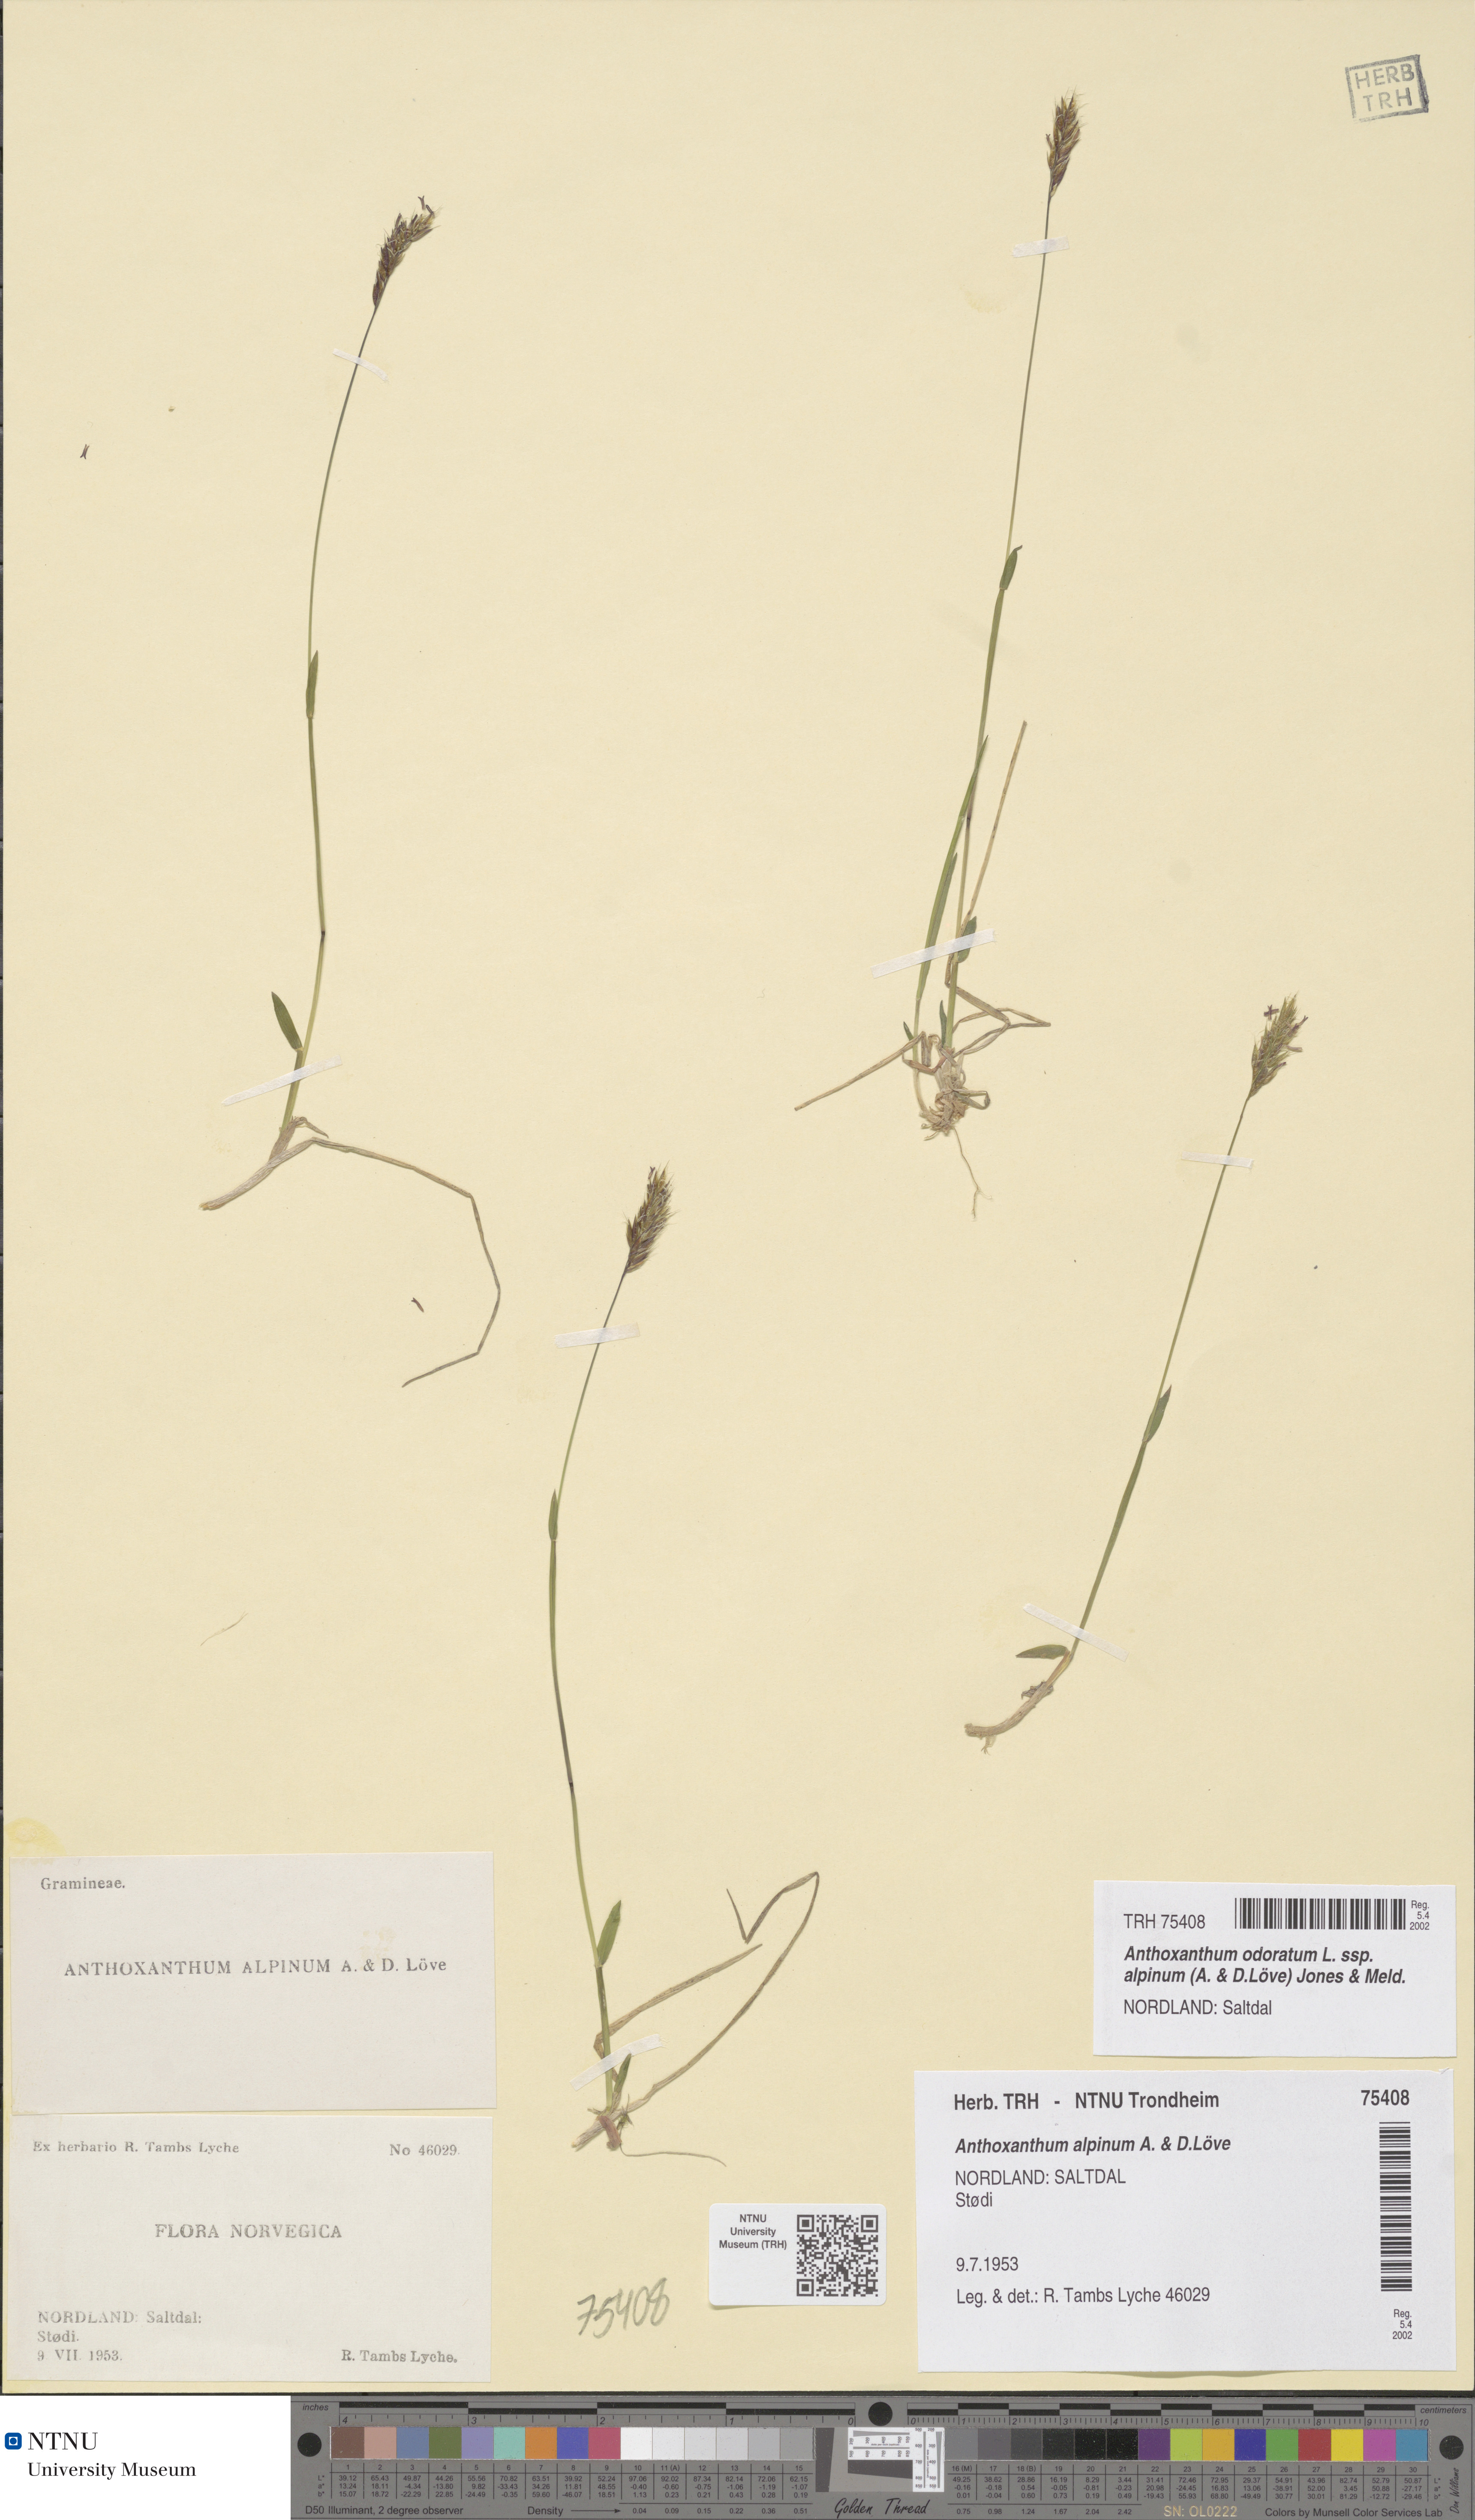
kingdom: Plantae
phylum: Tracheophyta
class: Liliopsida
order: Poales
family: Poaceae
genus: Anthoxanthum
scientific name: Anthoxanthum nipponicum
